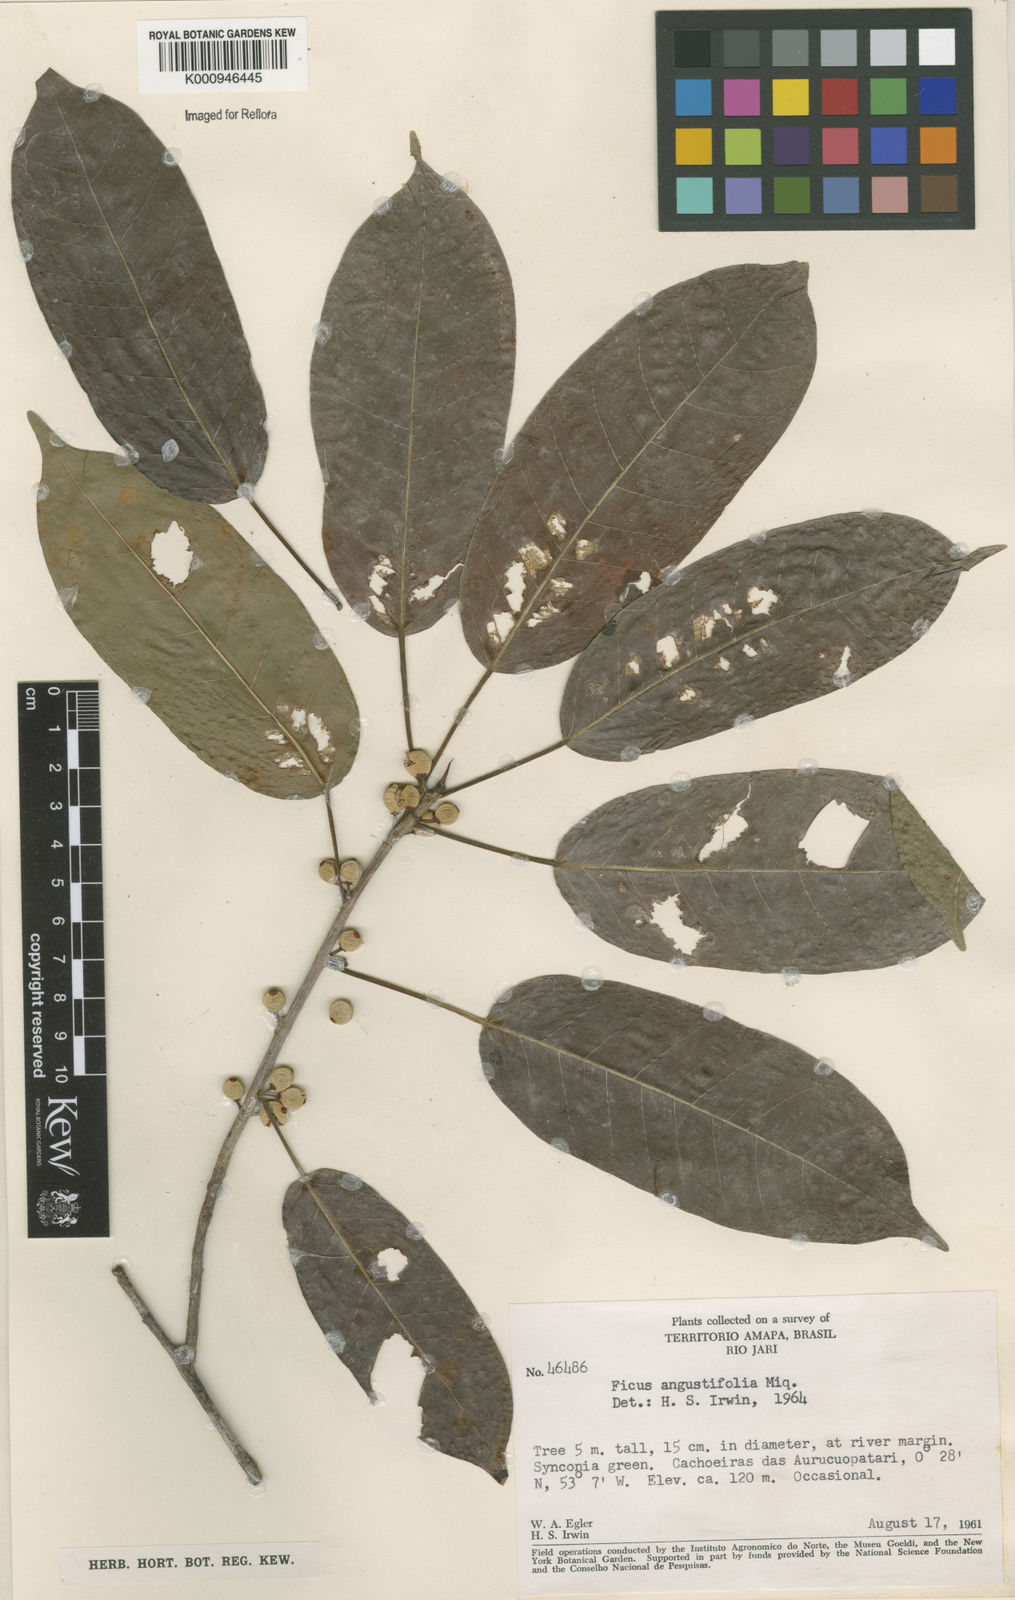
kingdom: Plantae
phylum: Tracheophyta
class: Magnoliopsida
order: Rosales
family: Moraceae
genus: Ficus
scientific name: Ficus amazonica
